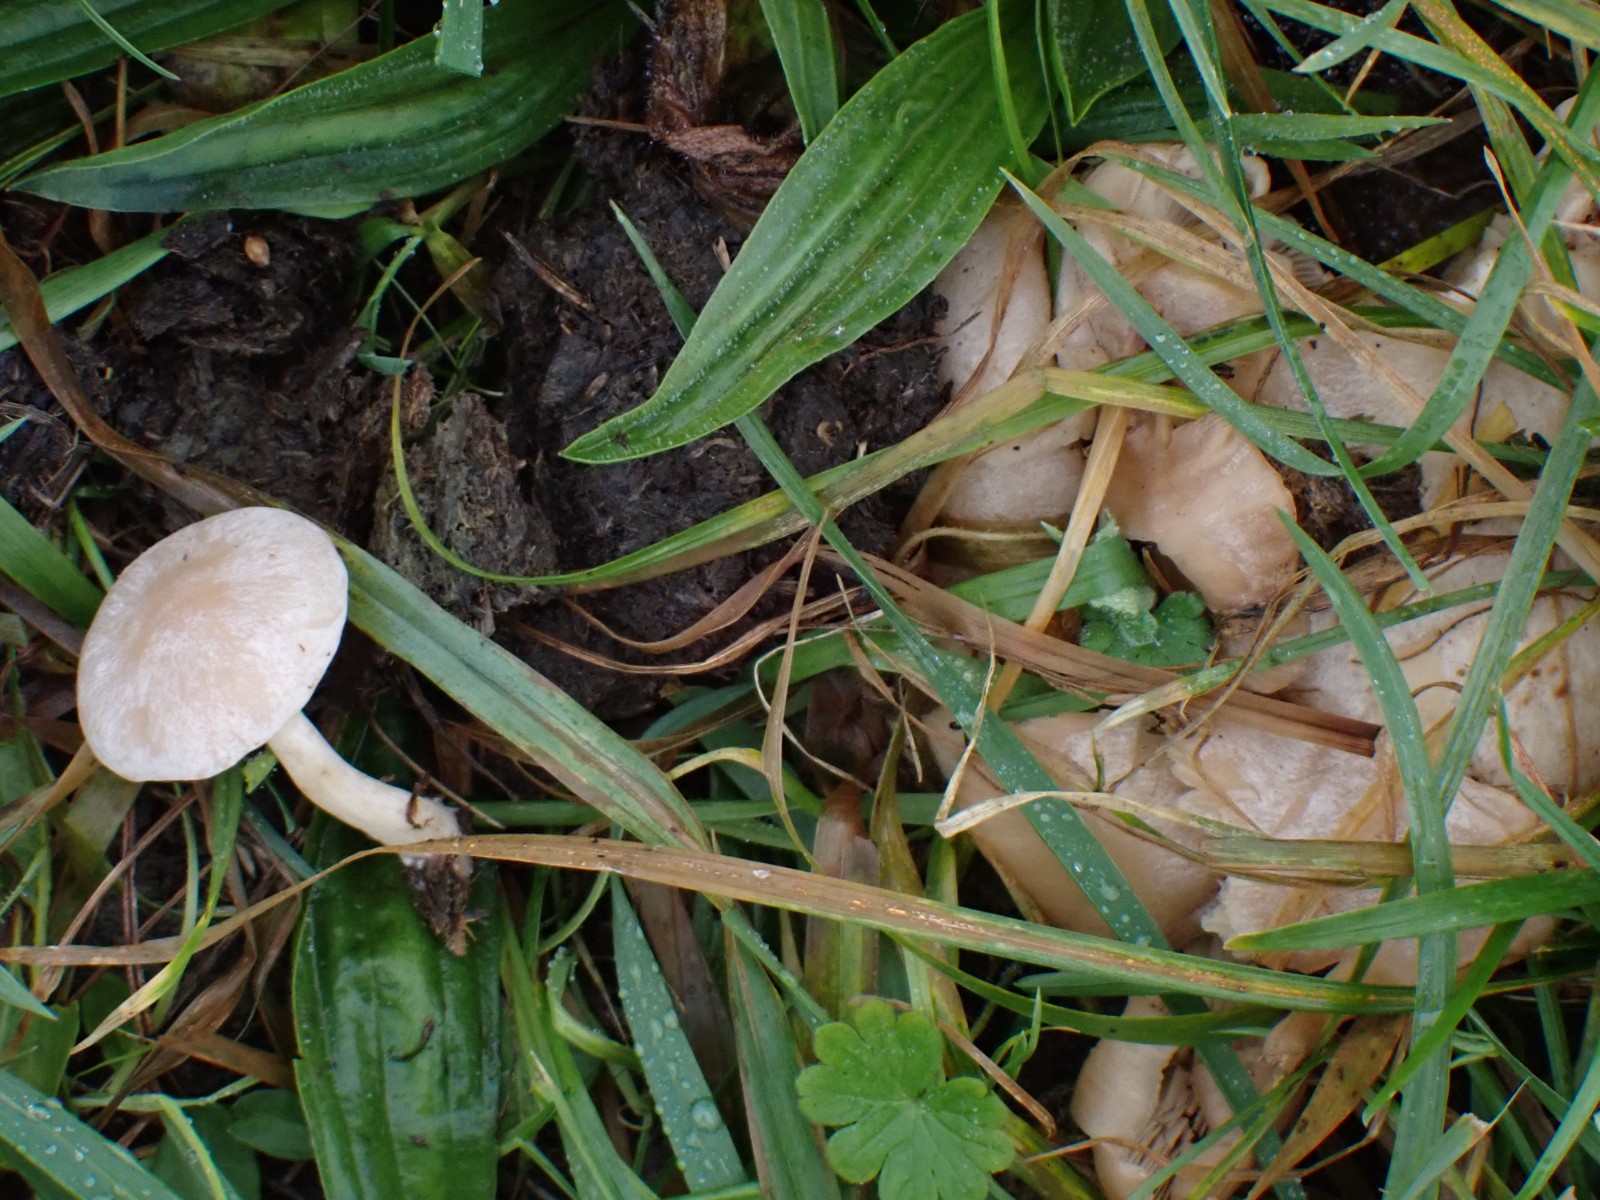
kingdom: Fungi
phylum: Basidiomycota
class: Agaricomycetes
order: Agaricales
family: Tricholomataceae
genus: Clitocybe
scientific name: Clitocybe
